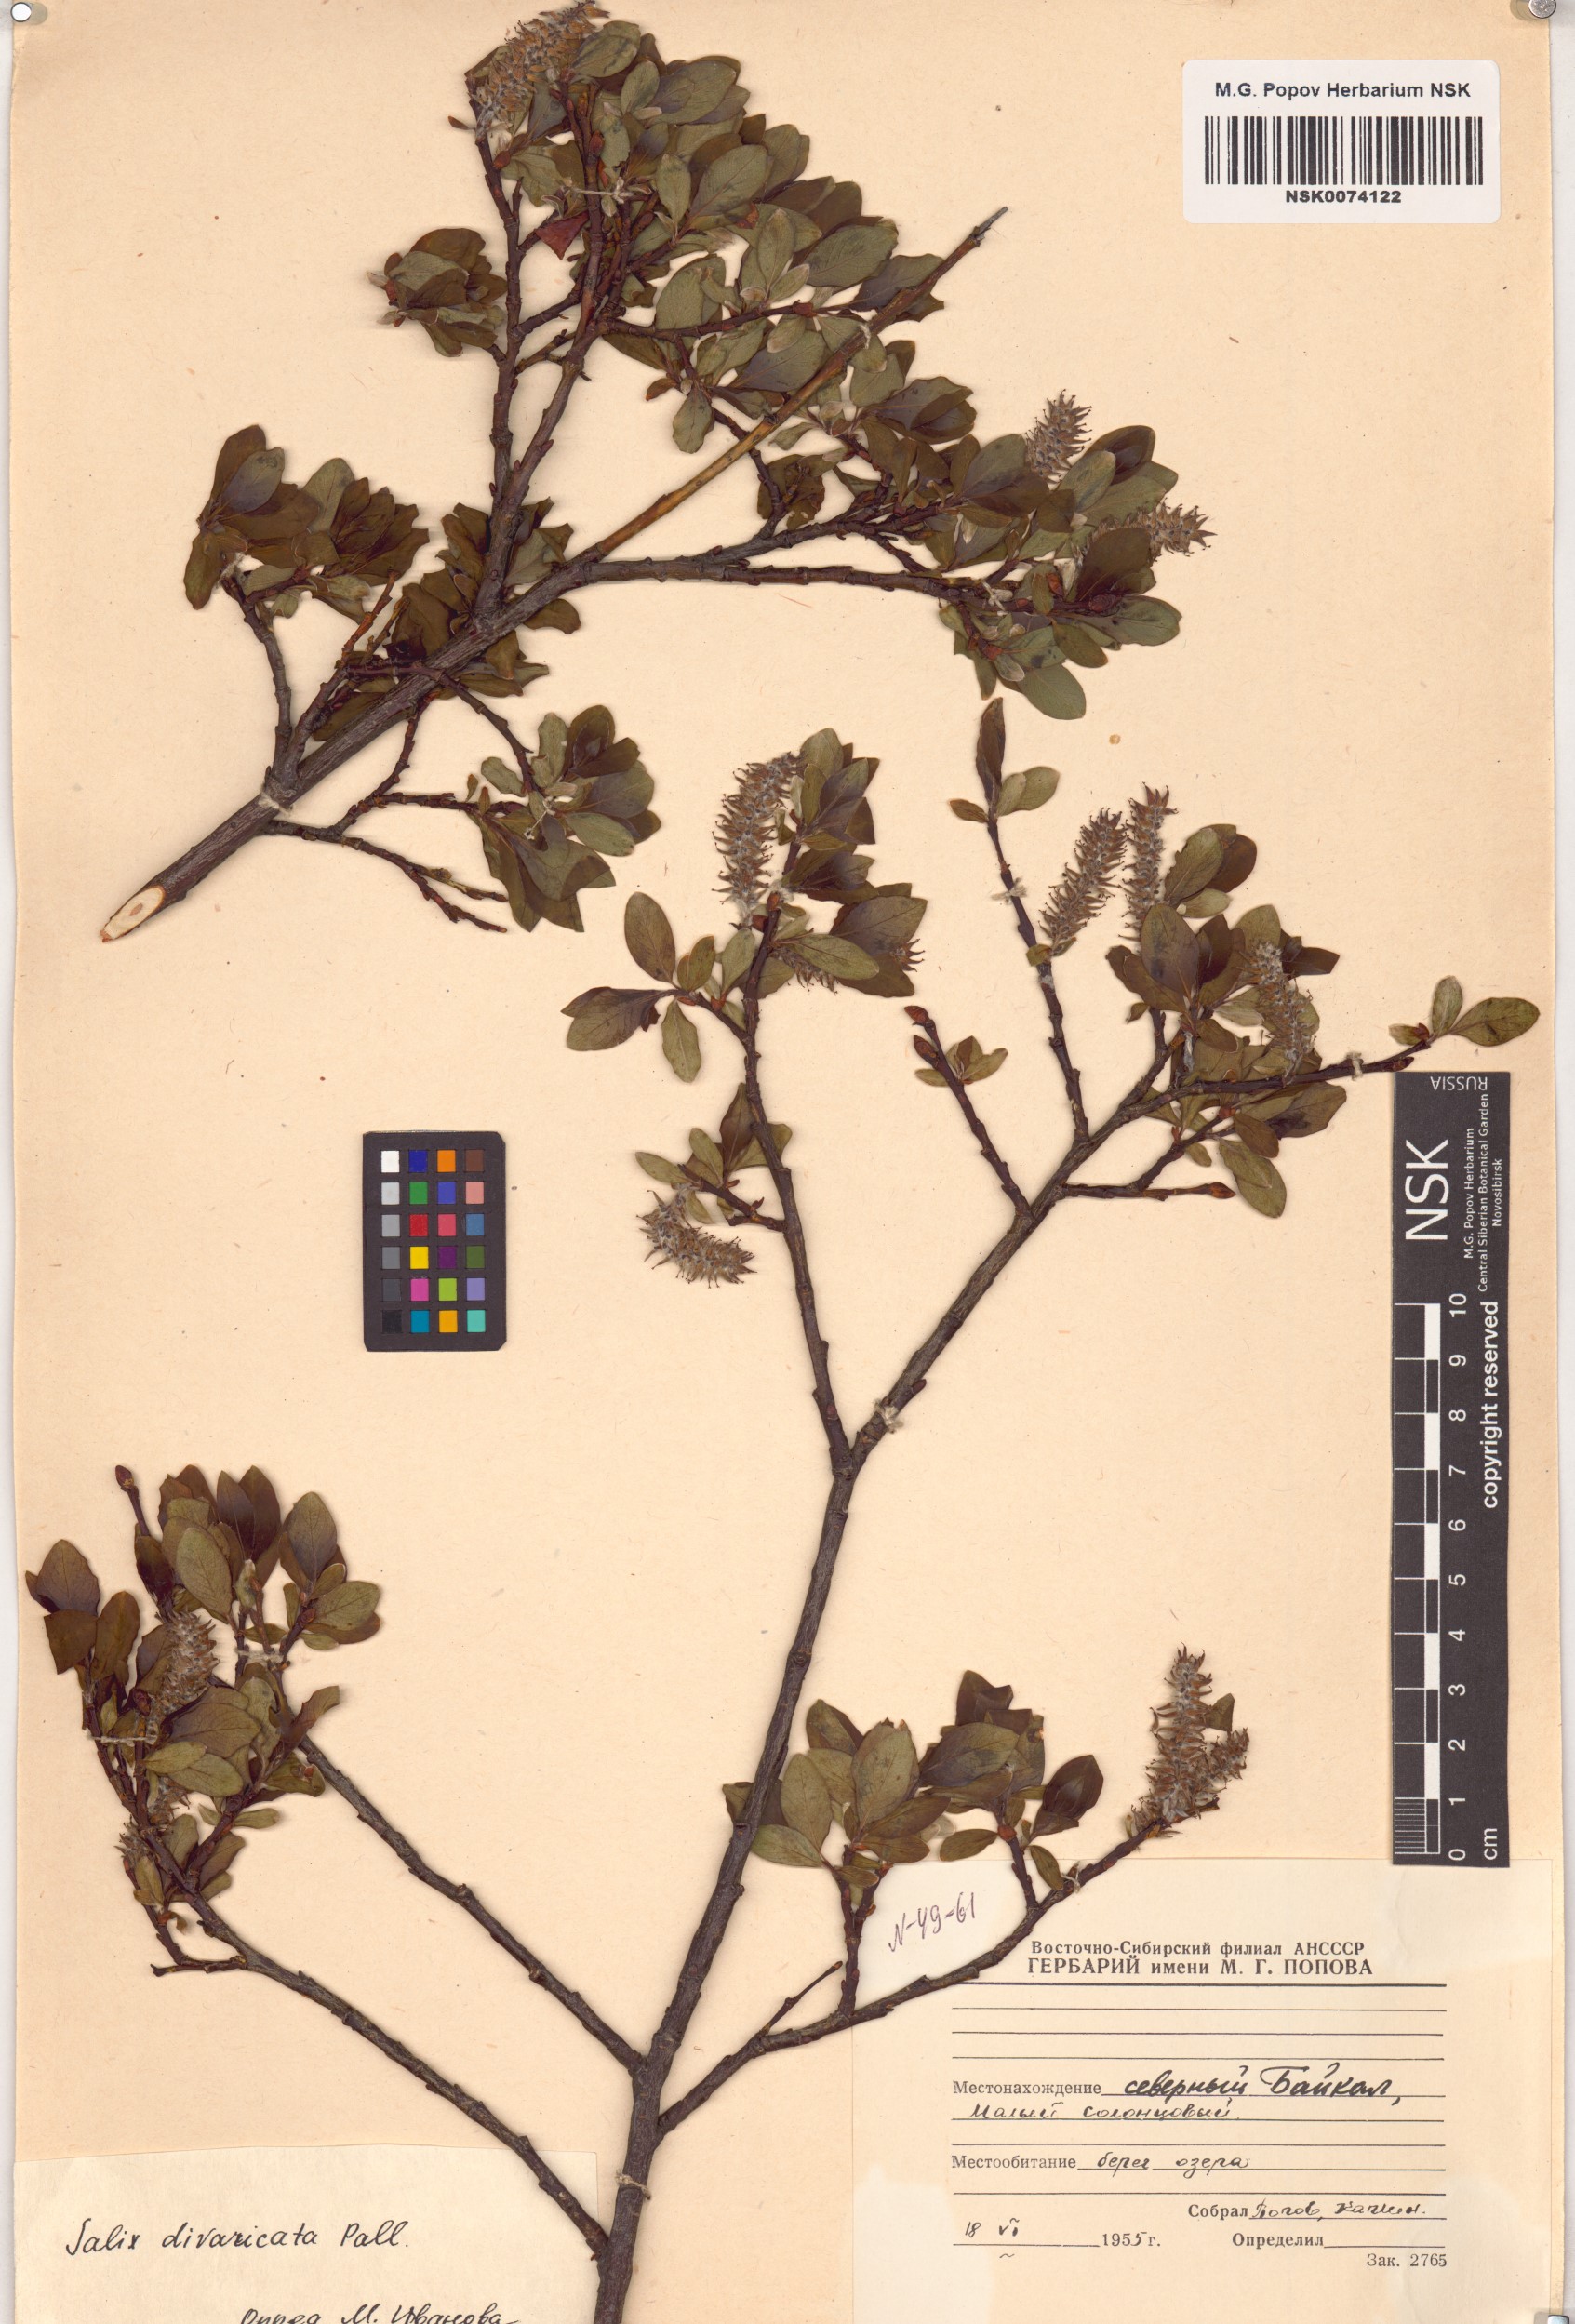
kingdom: Plantae
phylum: Tracheophyta
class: Magnoliopsida
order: Malpighiales
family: Salicaceae
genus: Salix
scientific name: Salix divaricata
